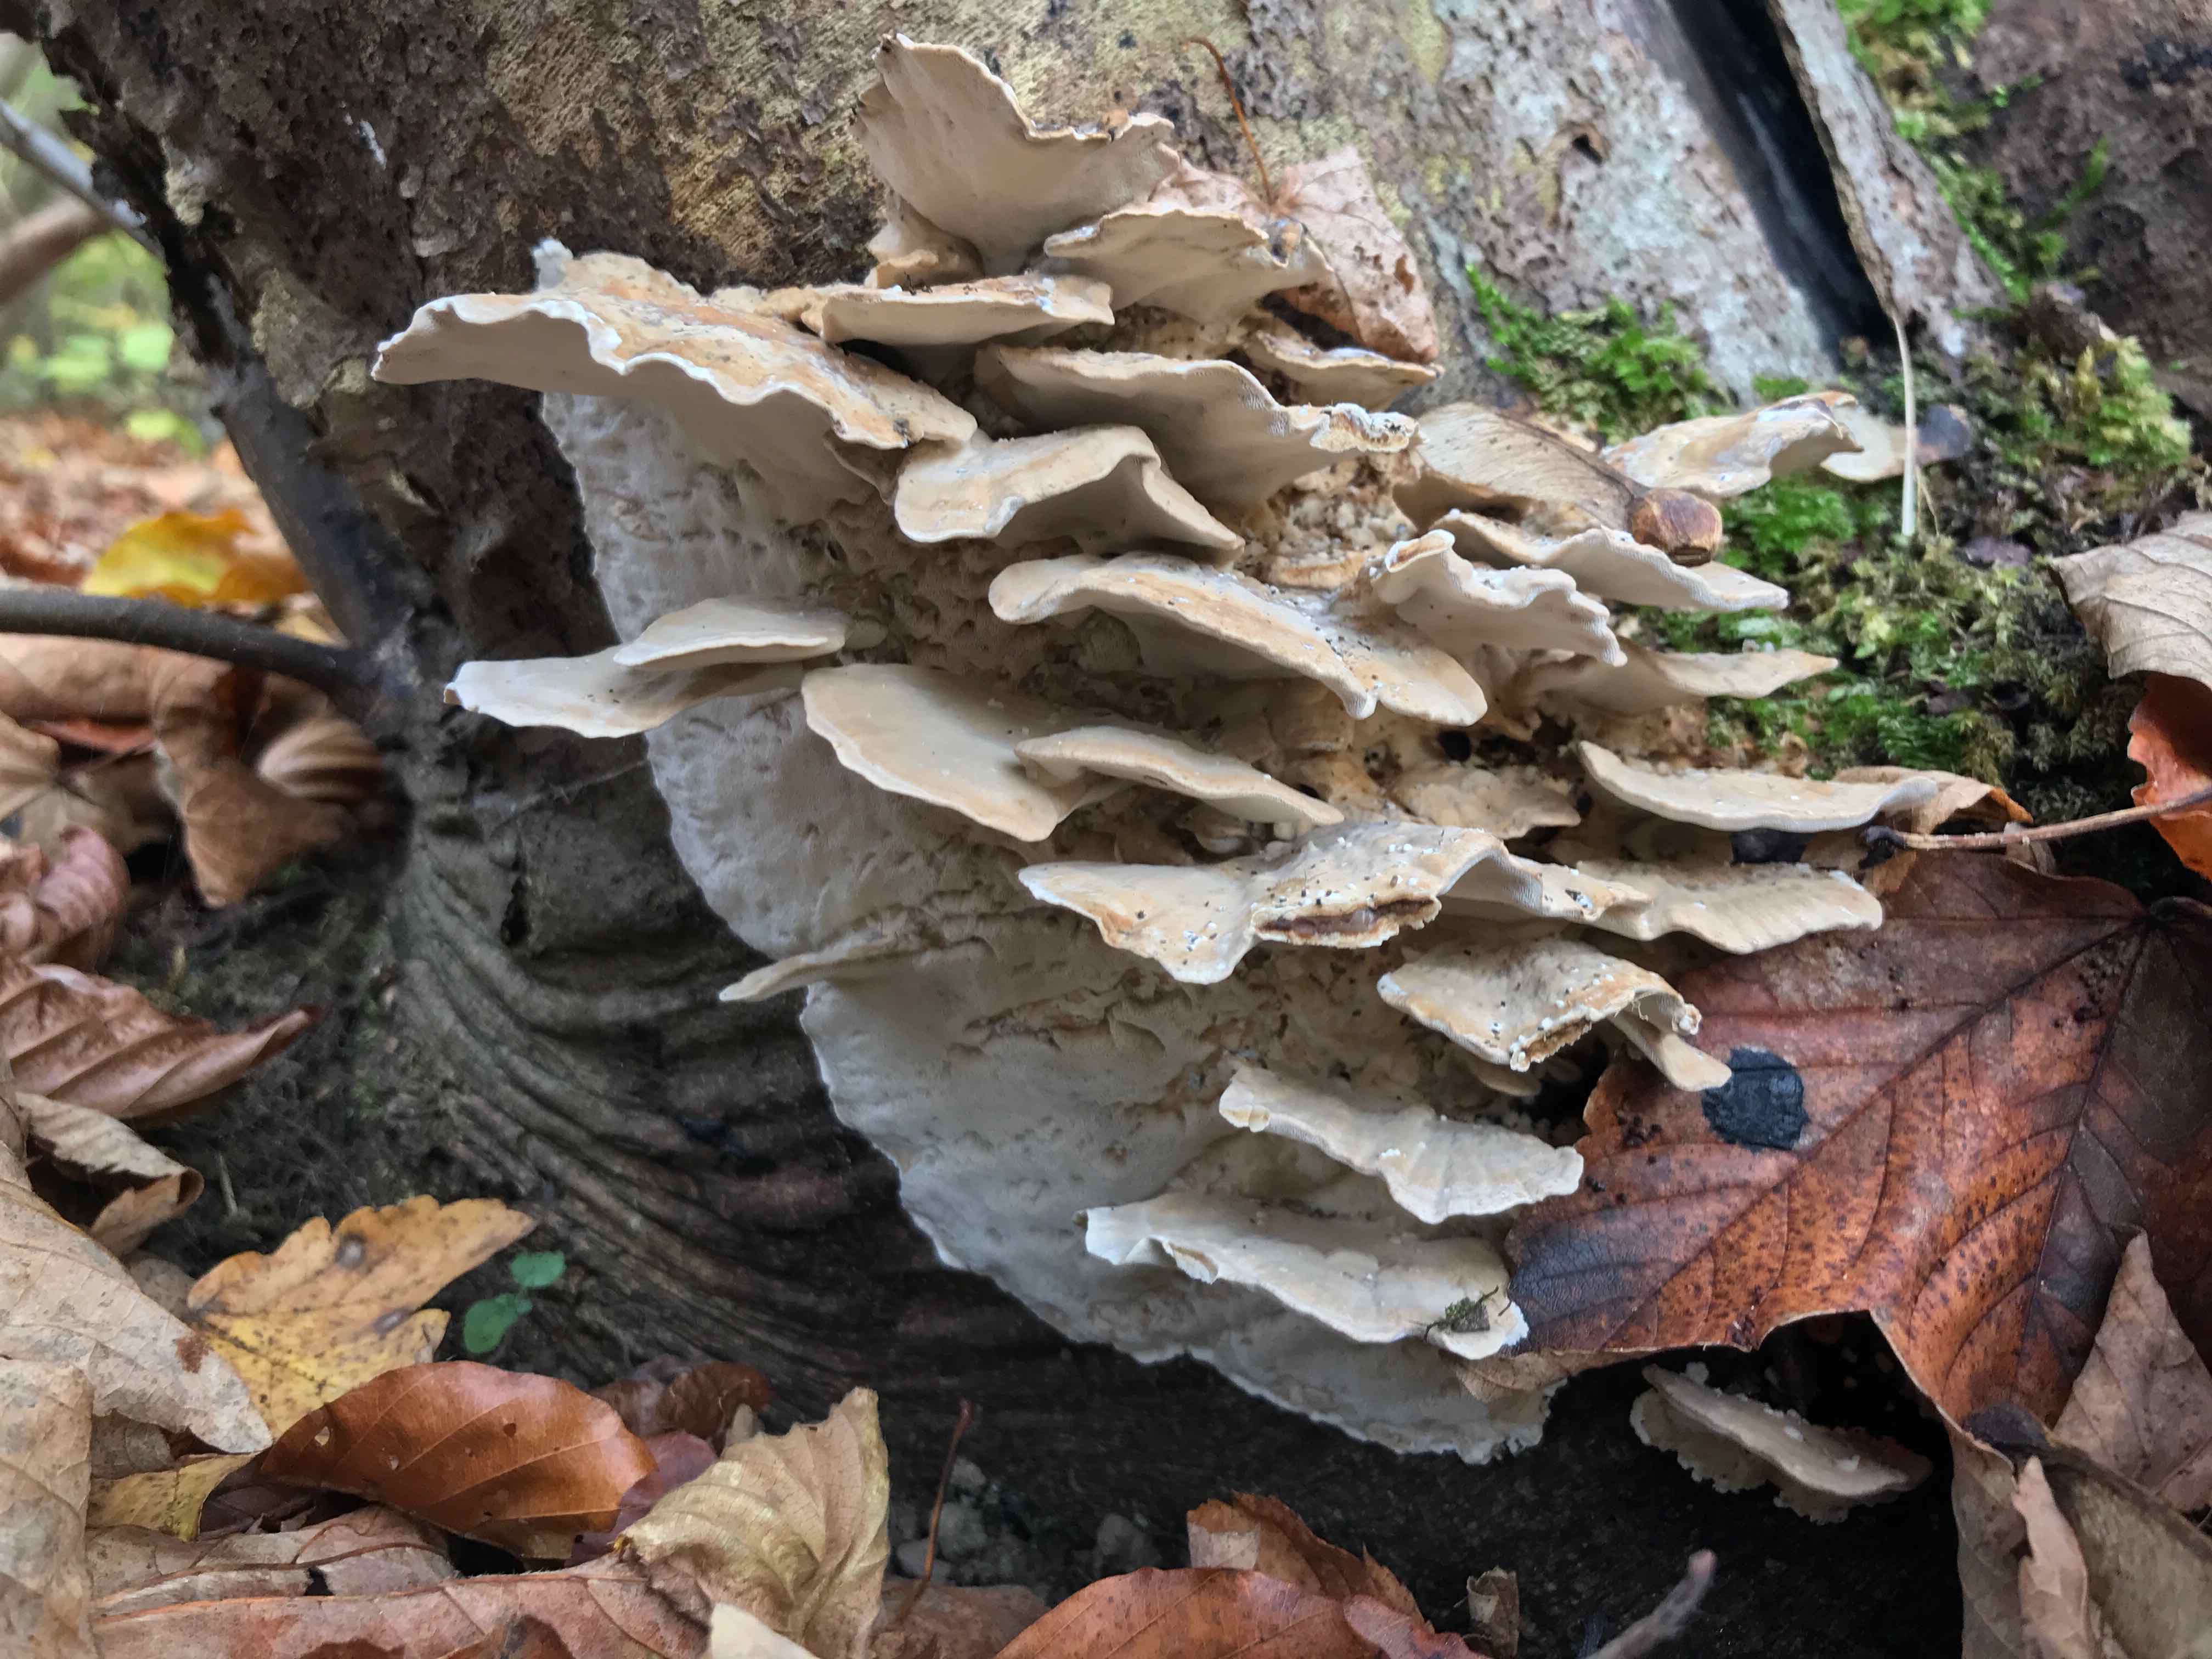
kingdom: Fungi
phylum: Basidiomycota
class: Agaricomycetes
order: Polyporales
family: Phanerochaetaceae
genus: Bjerkandera
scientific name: Bjerkandera fumosa
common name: grågul sodporesvamp
